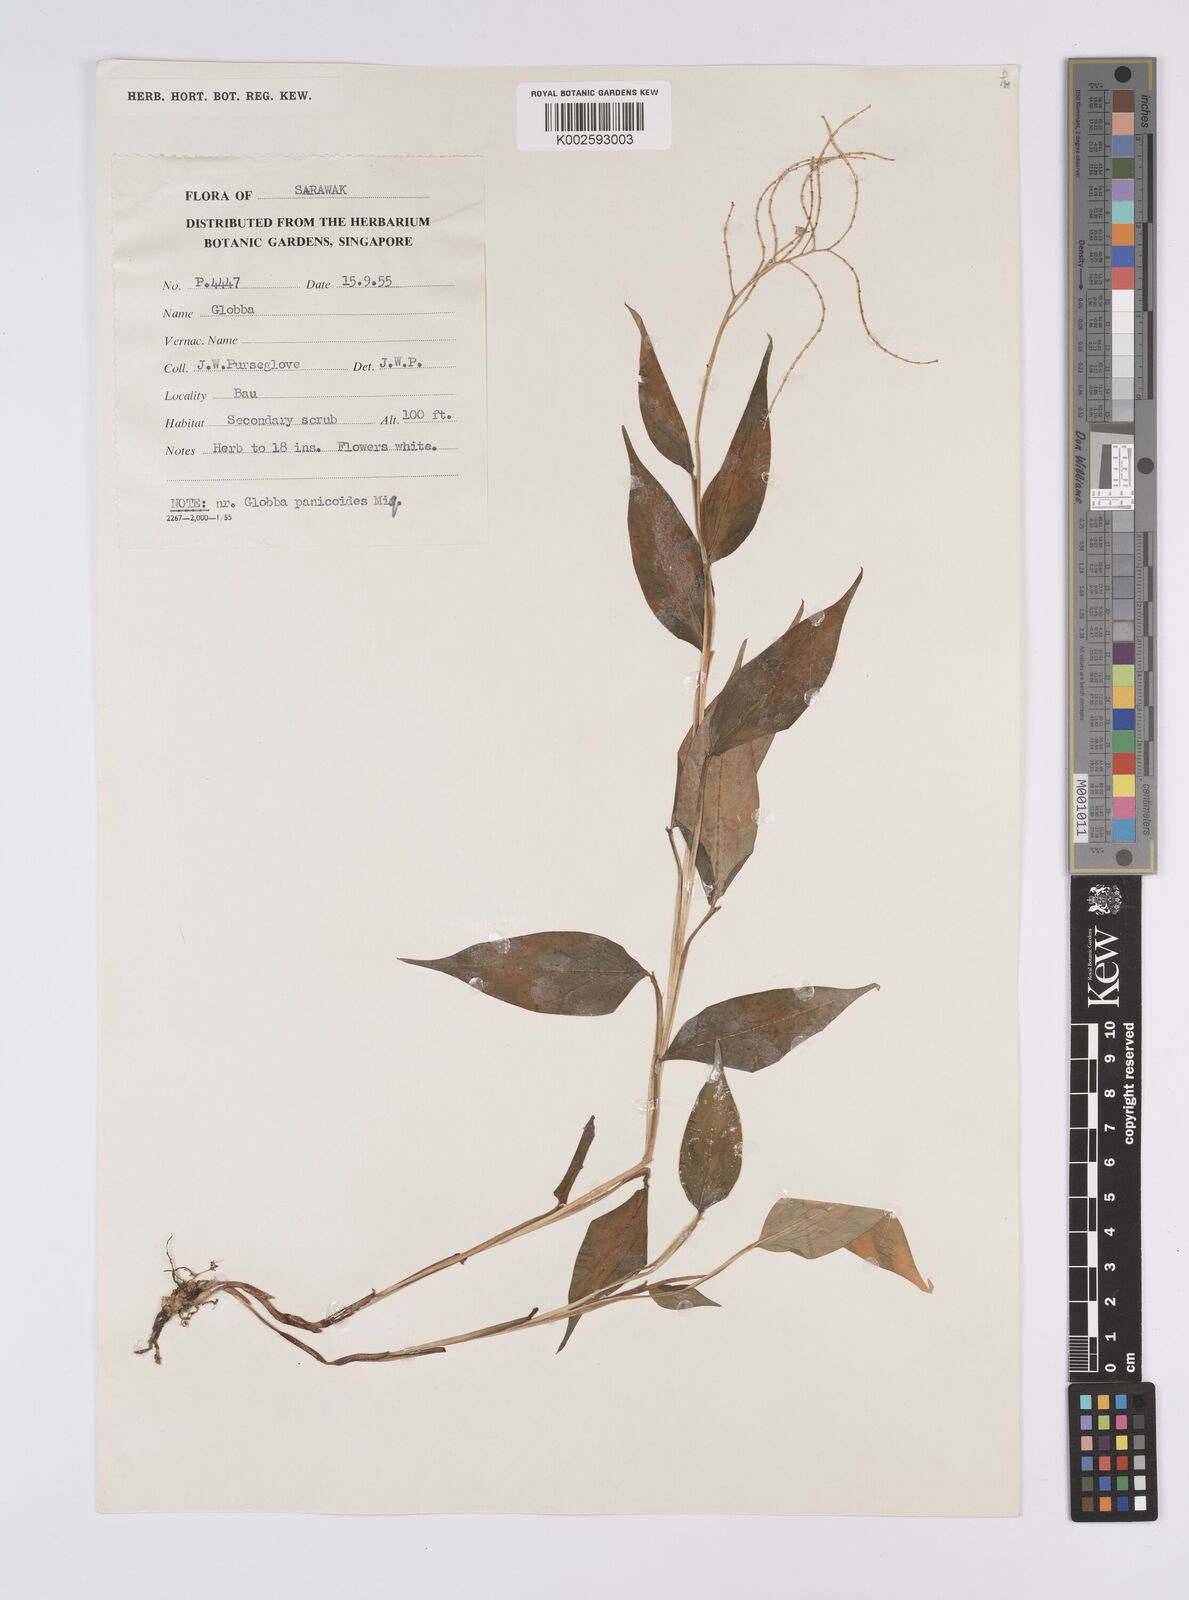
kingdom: Plantae
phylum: Tracheophyta
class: Liliopsida
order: Zingiberales
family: Zingiberaceae
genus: Globba
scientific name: Globba brachyanthera
